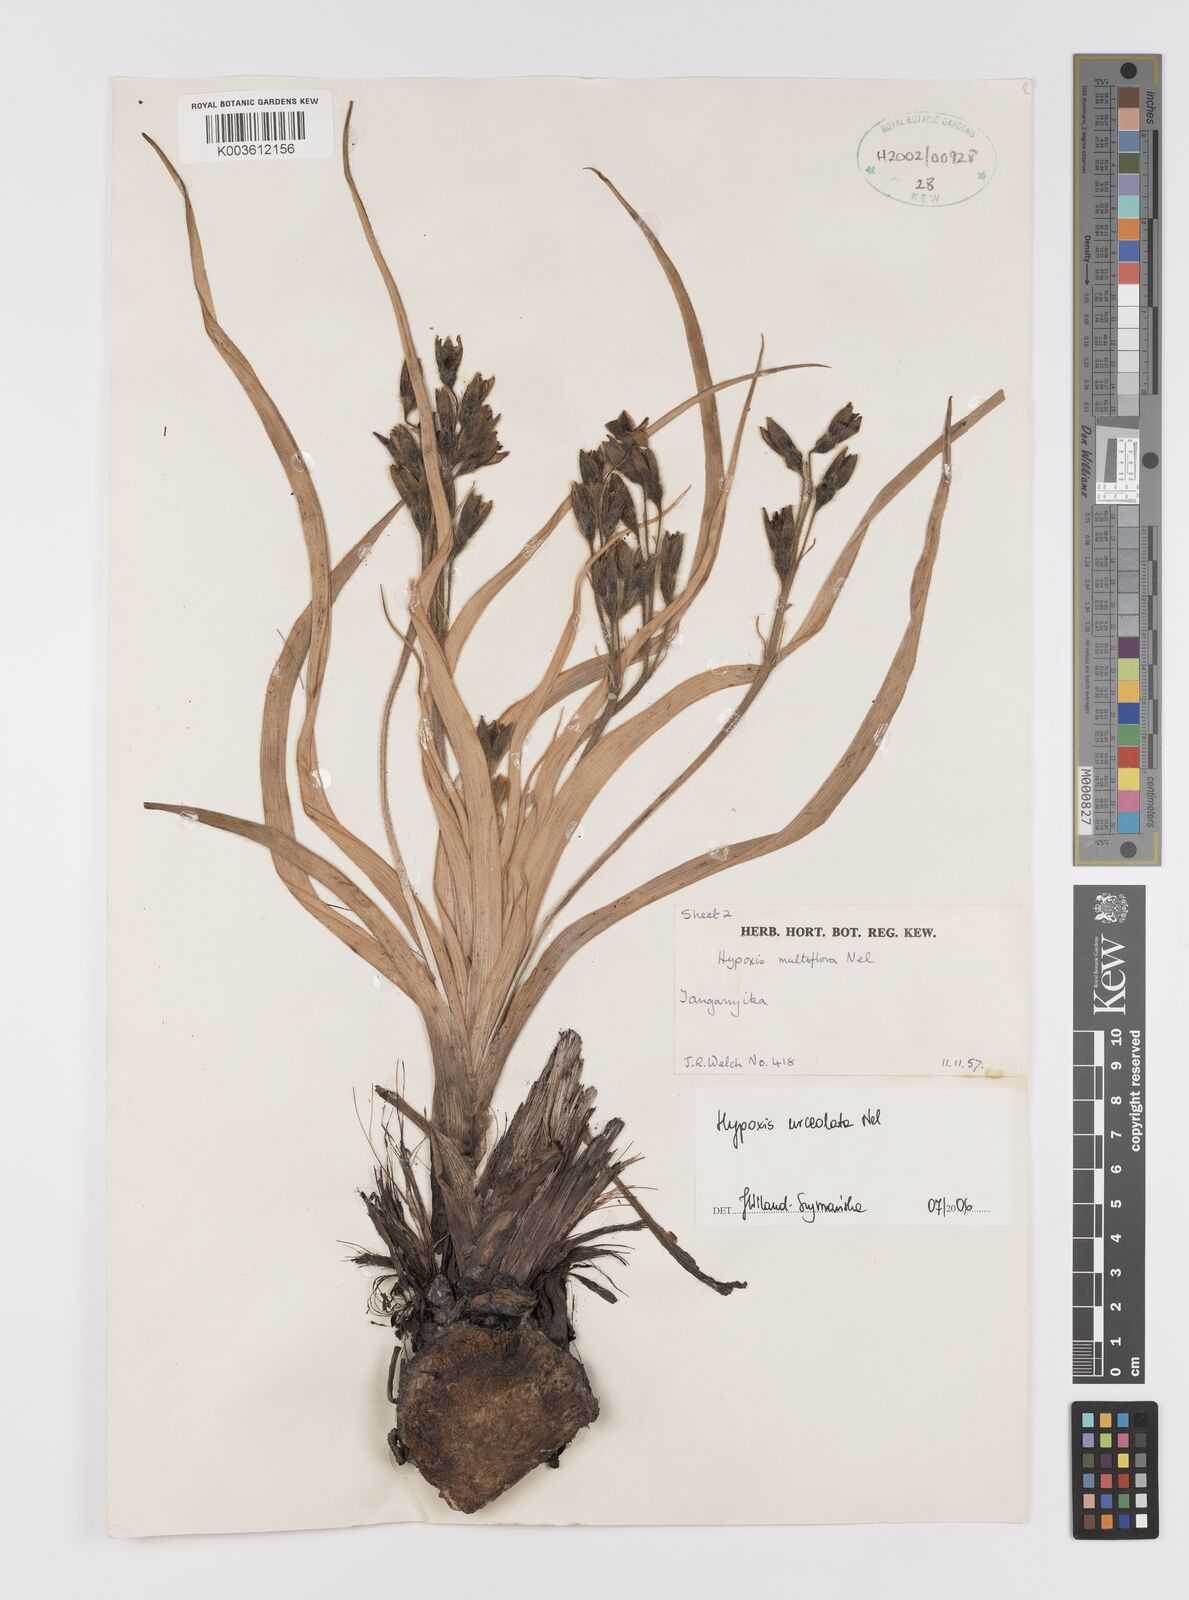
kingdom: Plantae
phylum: Tracheophyta
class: Liliopsida
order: Asparagales
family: Hypoxidaceae
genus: Hypoxis
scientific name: Hypoxis urceolata
